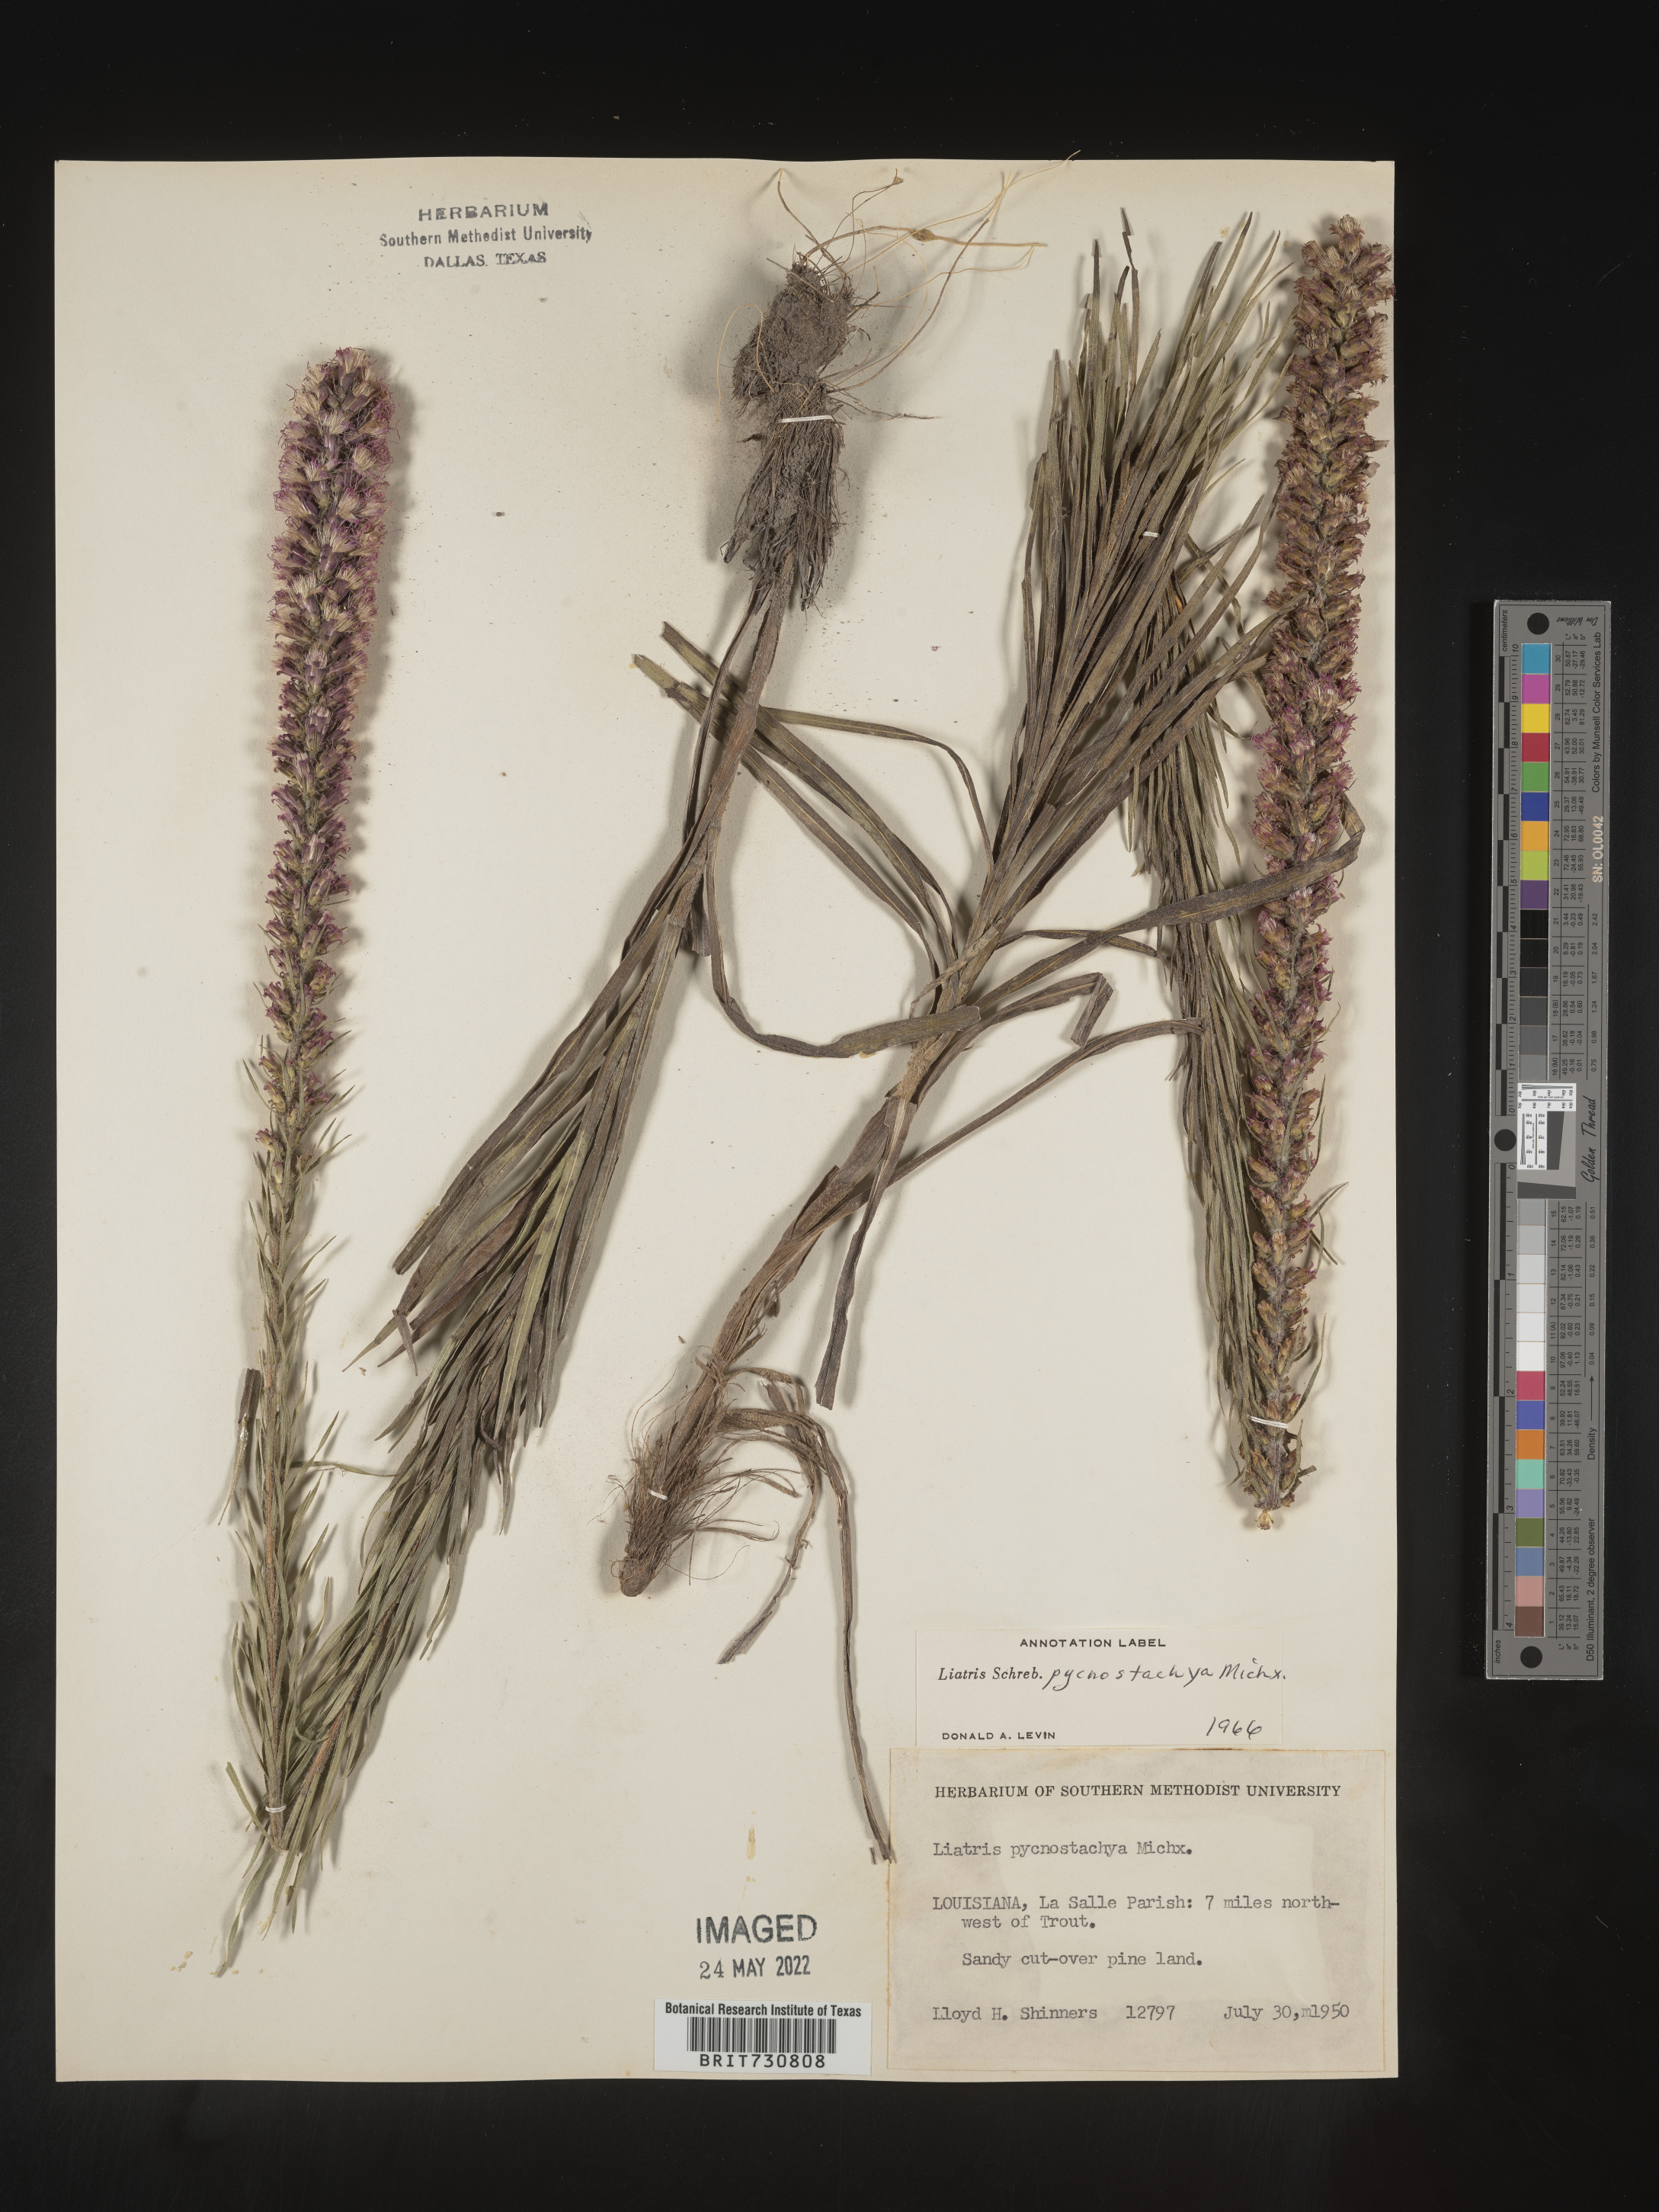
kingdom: Plantae
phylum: Tracheophyta
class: Magnoliopsida
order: Asterales
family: Asteraceae
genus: Liatris
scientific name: Liatris pycnostachya
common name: Cattail gayfeather
